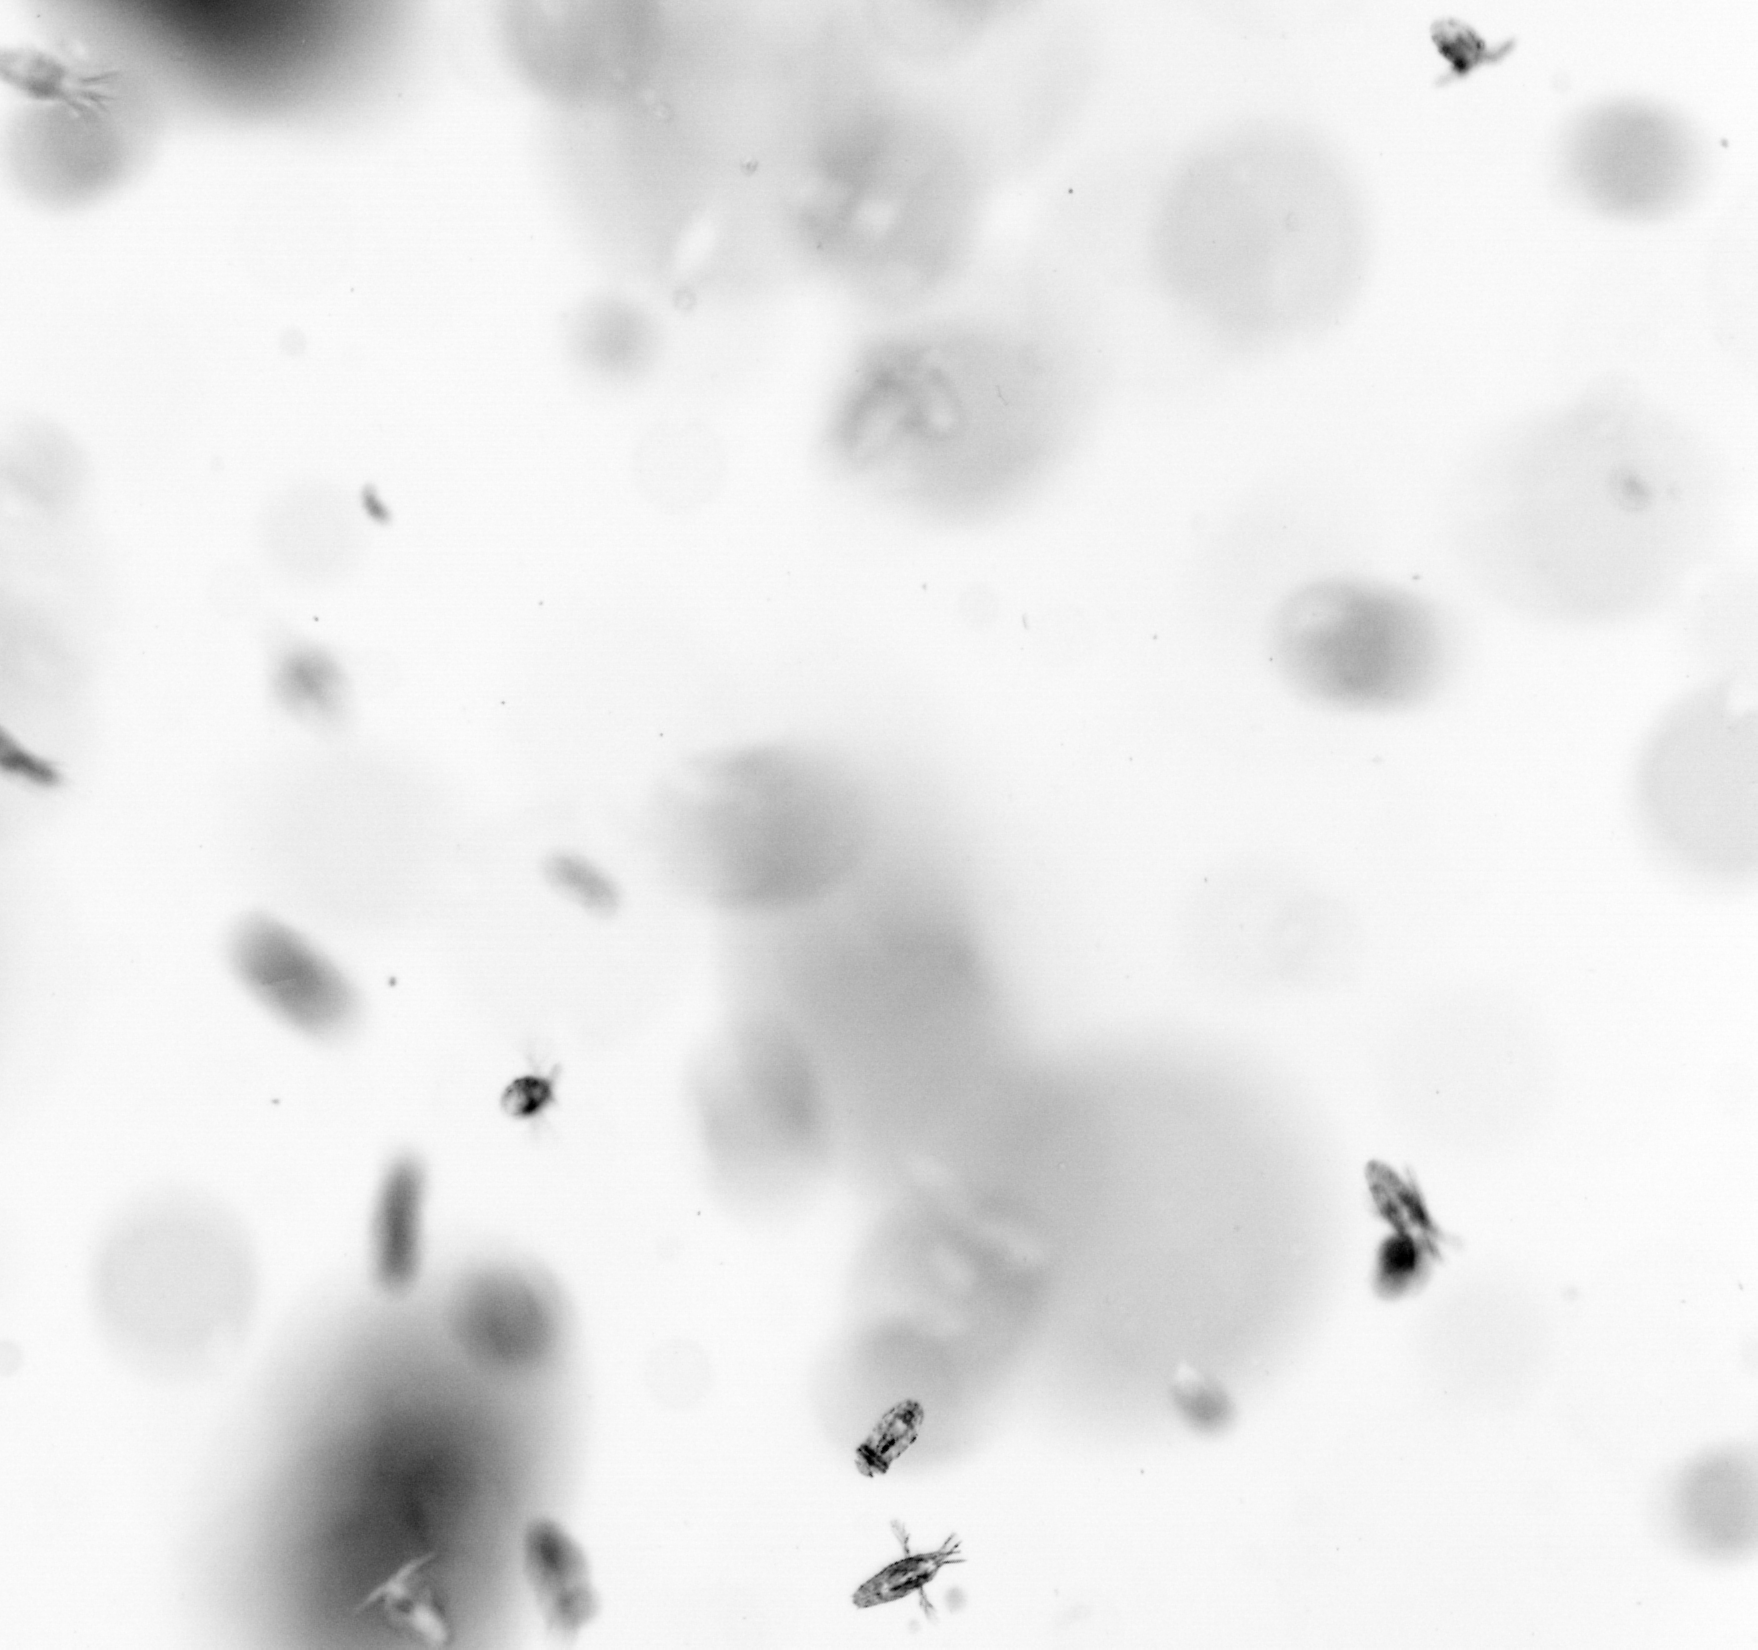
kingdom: Animalia
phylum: Arthropoda
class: Copepoda
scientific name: Copepoda
